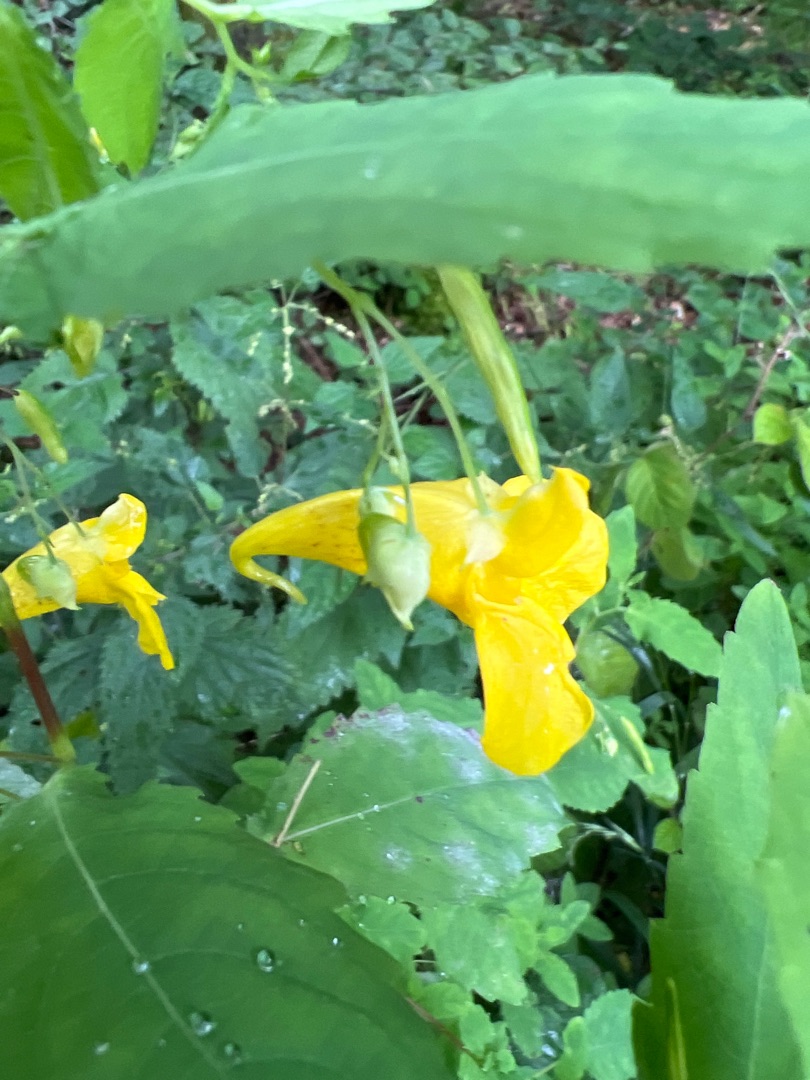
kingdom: Plantae
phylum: Tracheophyta
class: Magnoliopsida
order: Ericales
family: Balsaminaceae
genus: Impatiens
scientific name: Impatiens noli-tangere
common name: Spring-balsamin
